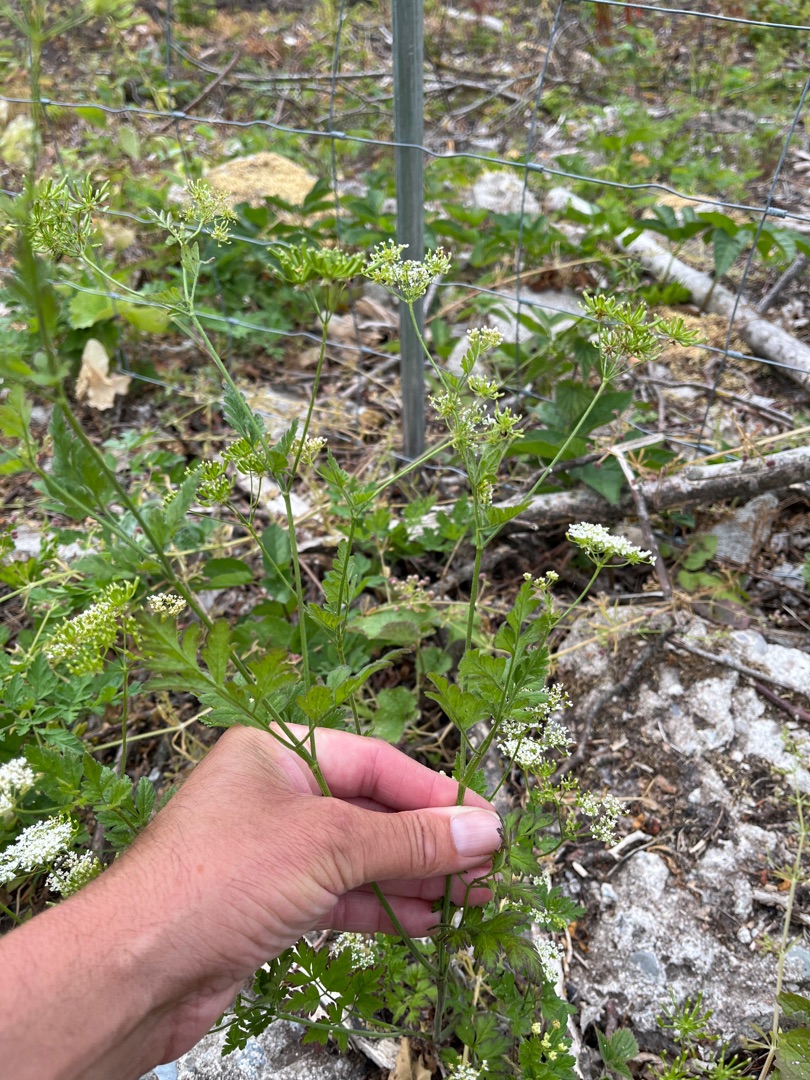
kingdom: Plantae
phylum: Tracheophyta
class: Magnoliopsida
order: Apiales
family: Apiaceae
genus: Chaerophyllum
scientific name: Chaerophyllum temulum
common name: Almindelig hulsvøb
